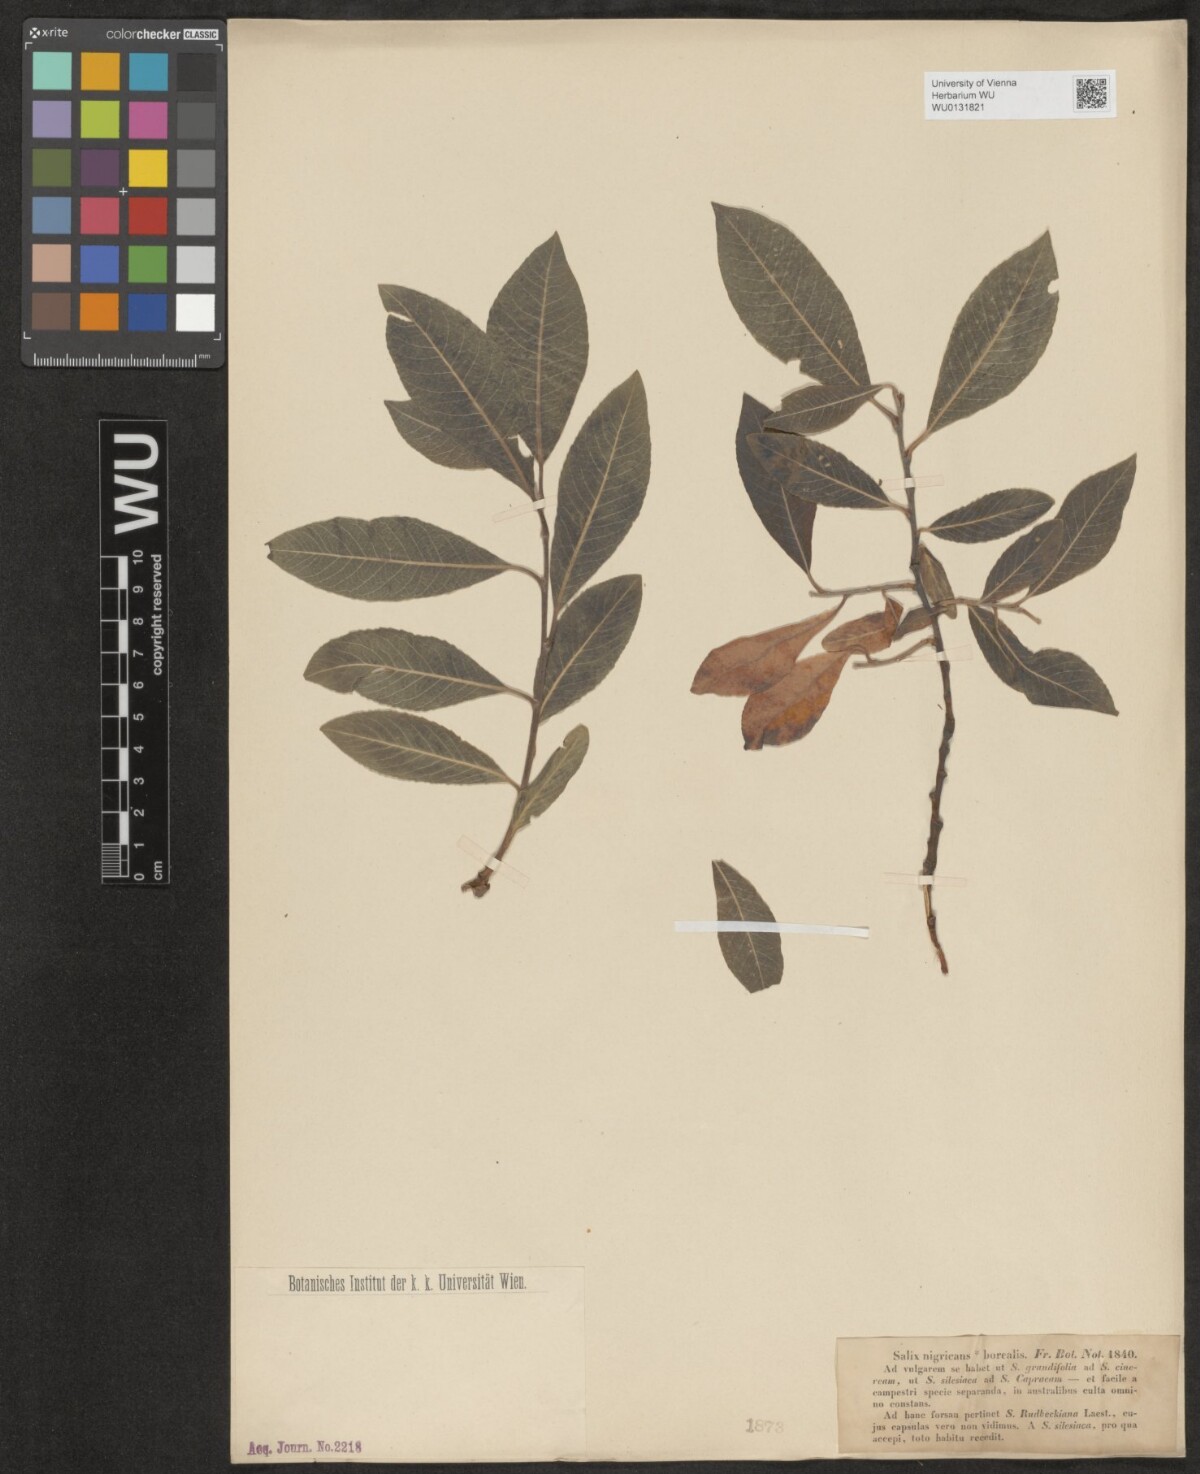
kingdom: Plantae
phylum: Tracheophyta
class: Magnoliopsida
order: Malpighiales
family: Salicaceae
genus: Salix
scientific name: Salix myrsinifolia
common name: Dark-leaved willow
